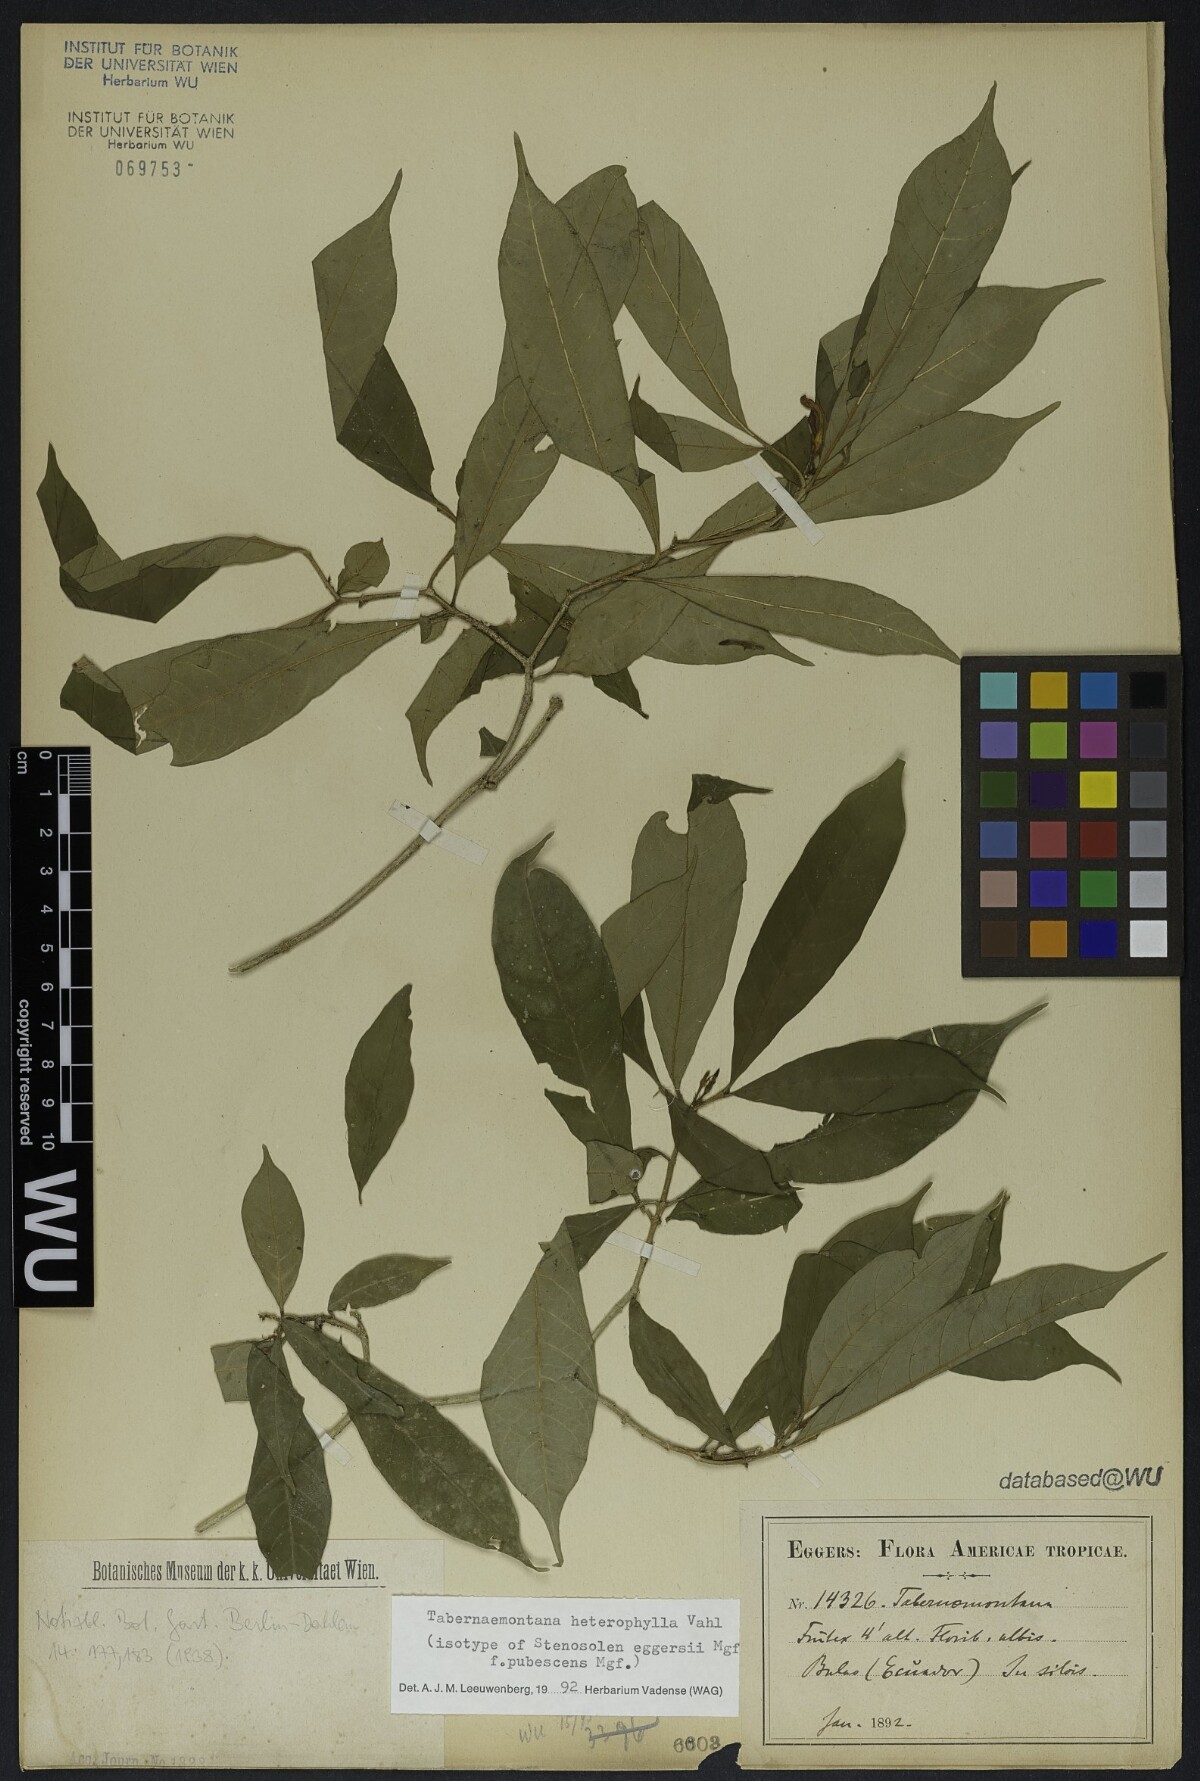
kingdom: Plantae
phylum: Tracheophyta
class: Magnoliopsida
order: Gentianales
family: Apocynaceae
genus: Tabernaemontana
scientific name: Tabernaemontana heterophylla
